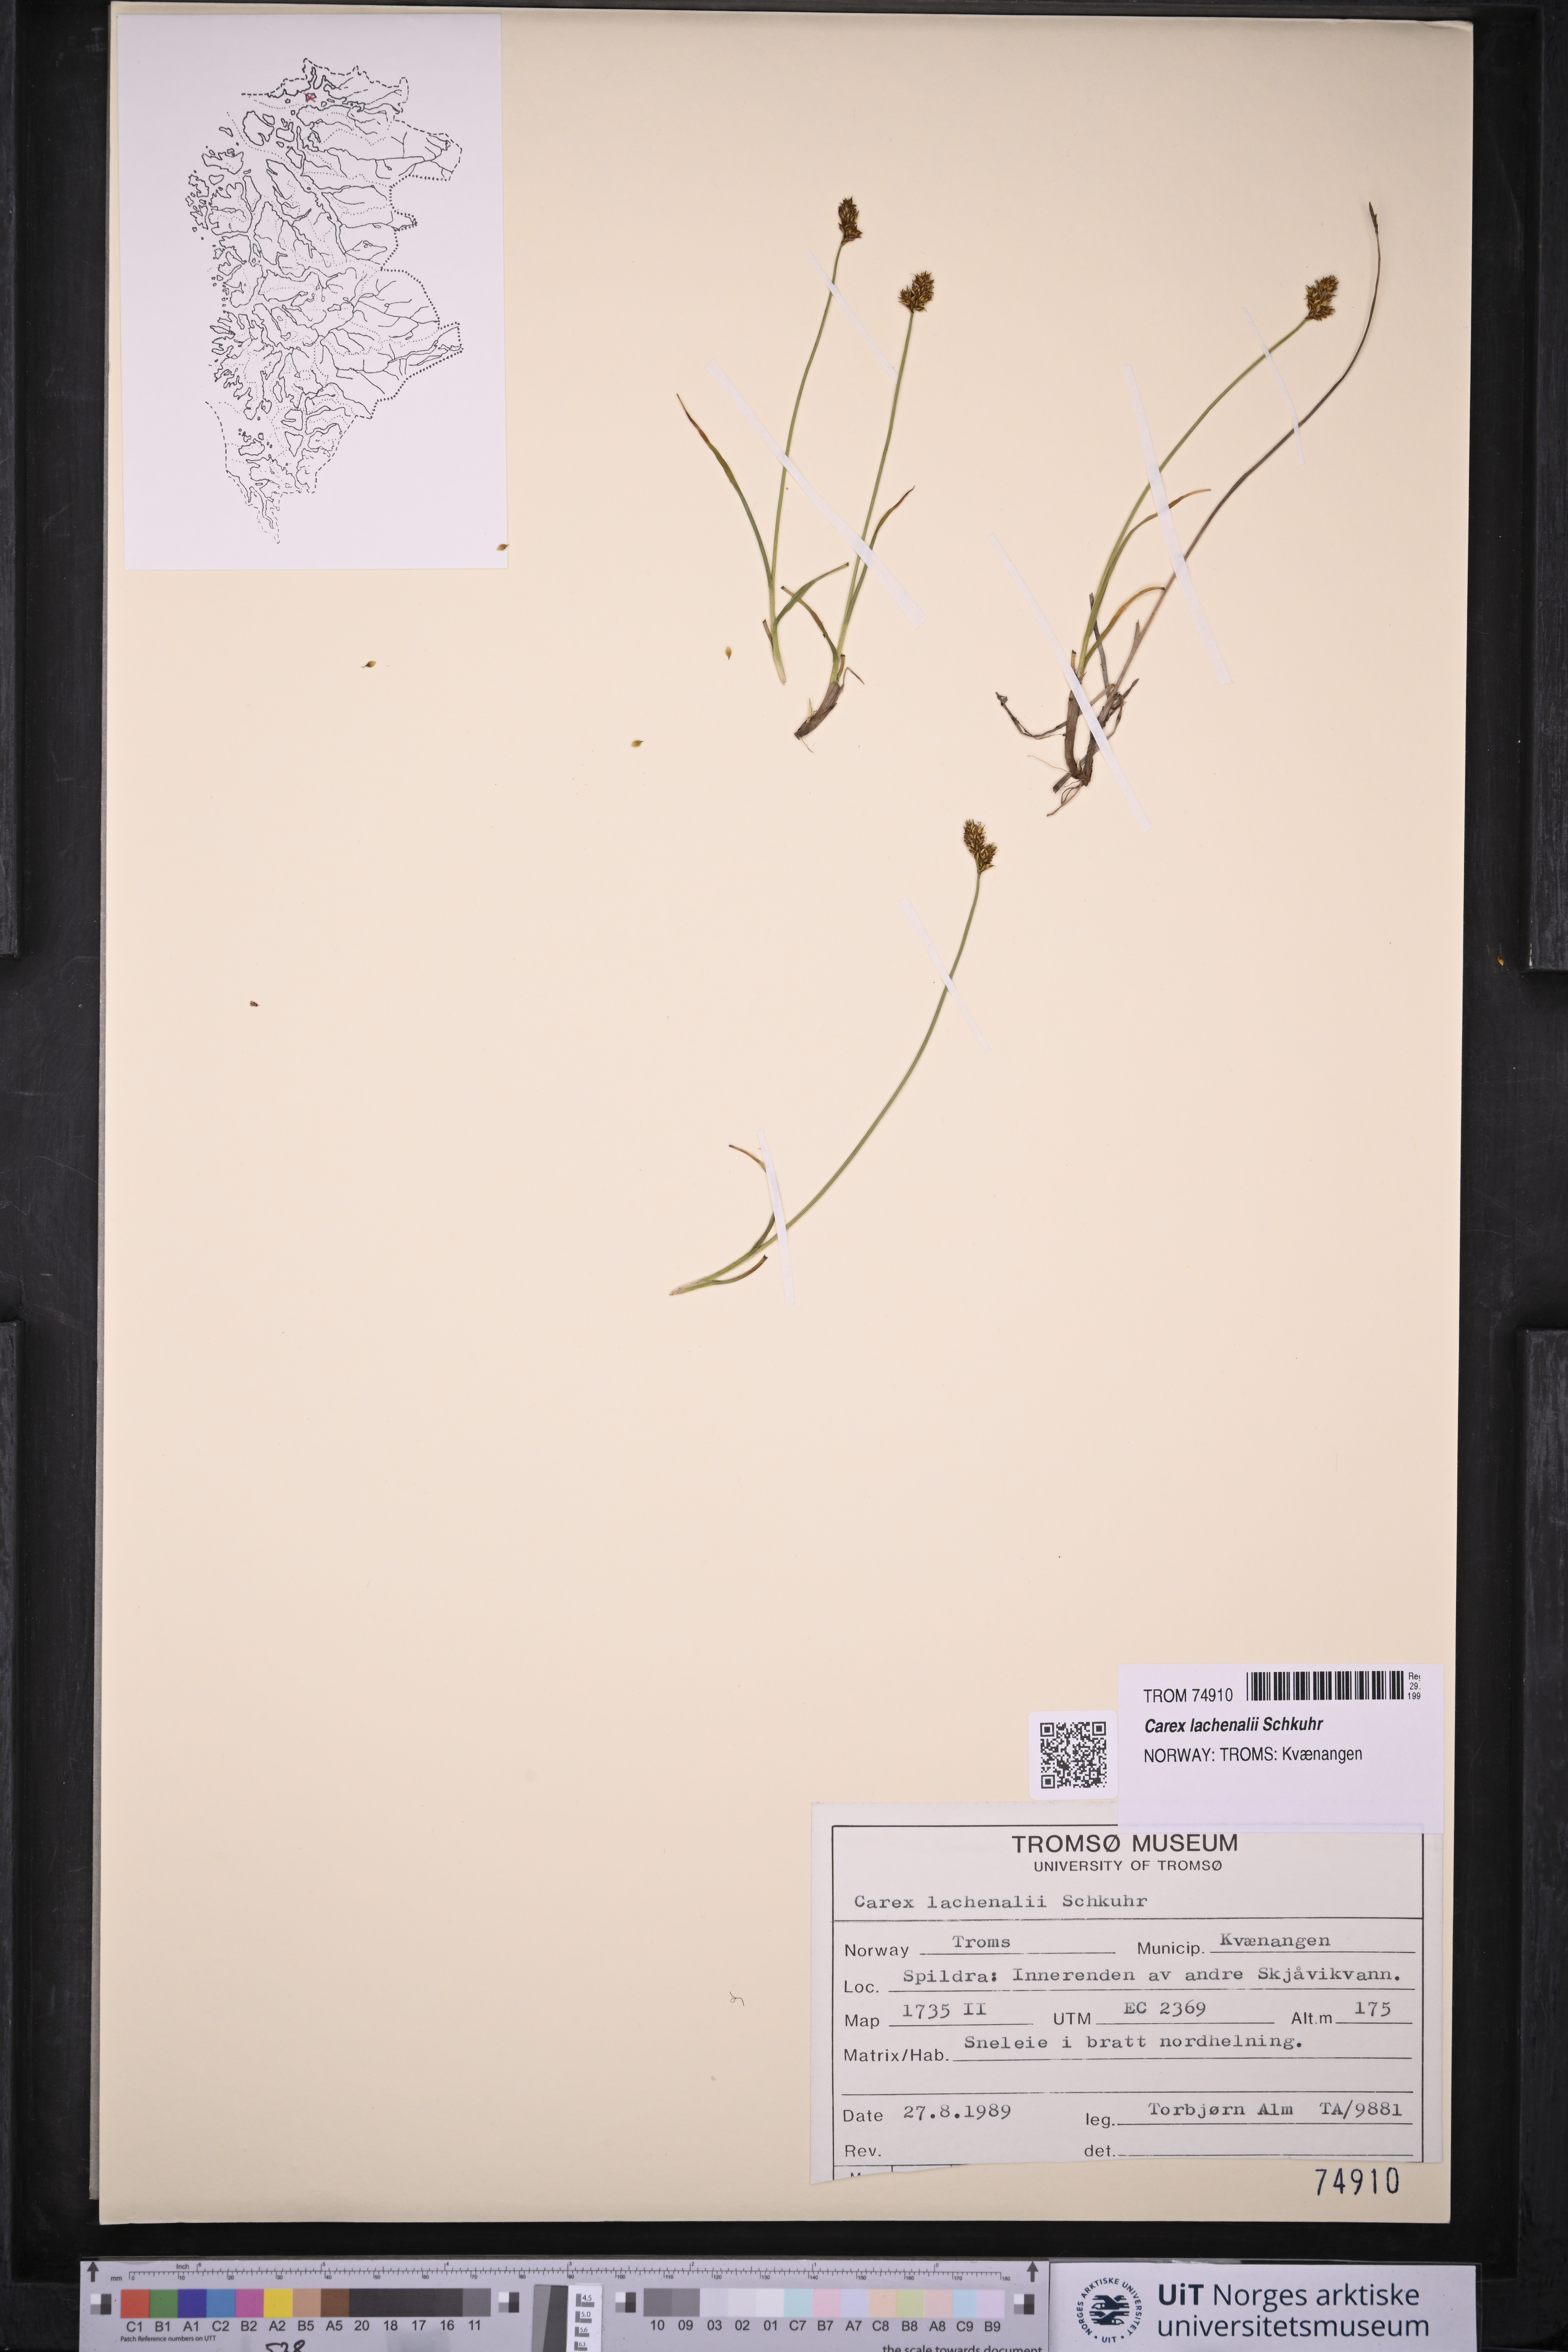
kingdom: Plantae
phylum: Tracheophyta
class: Liliopsida
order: Poales
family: Cyperaceae
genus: Carex
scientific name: Carex lachenalii
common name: Hare's-foot sedge
